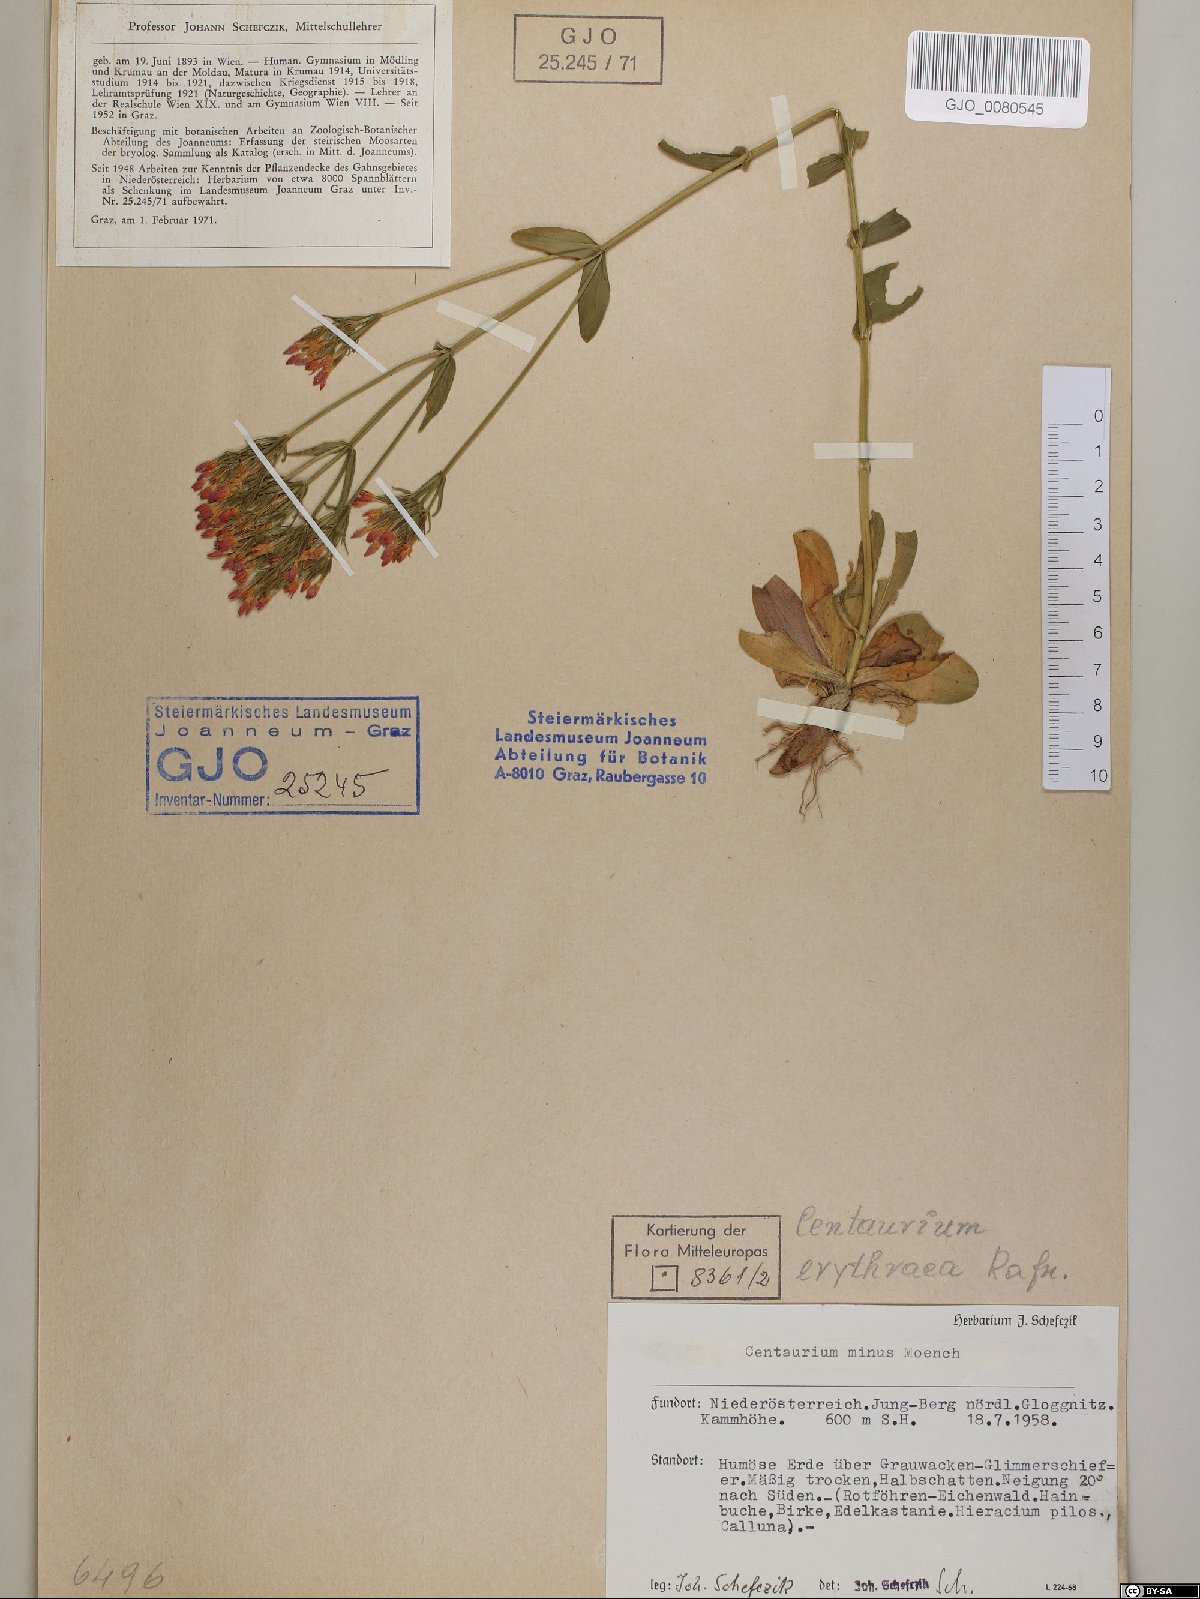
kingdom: Plantae
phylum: Tracheophyta
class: Magnoliopsida
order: Gentianales
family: Gentianaceae
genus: Centaurium
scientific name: Centaurium erythraea
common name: Common centaury
